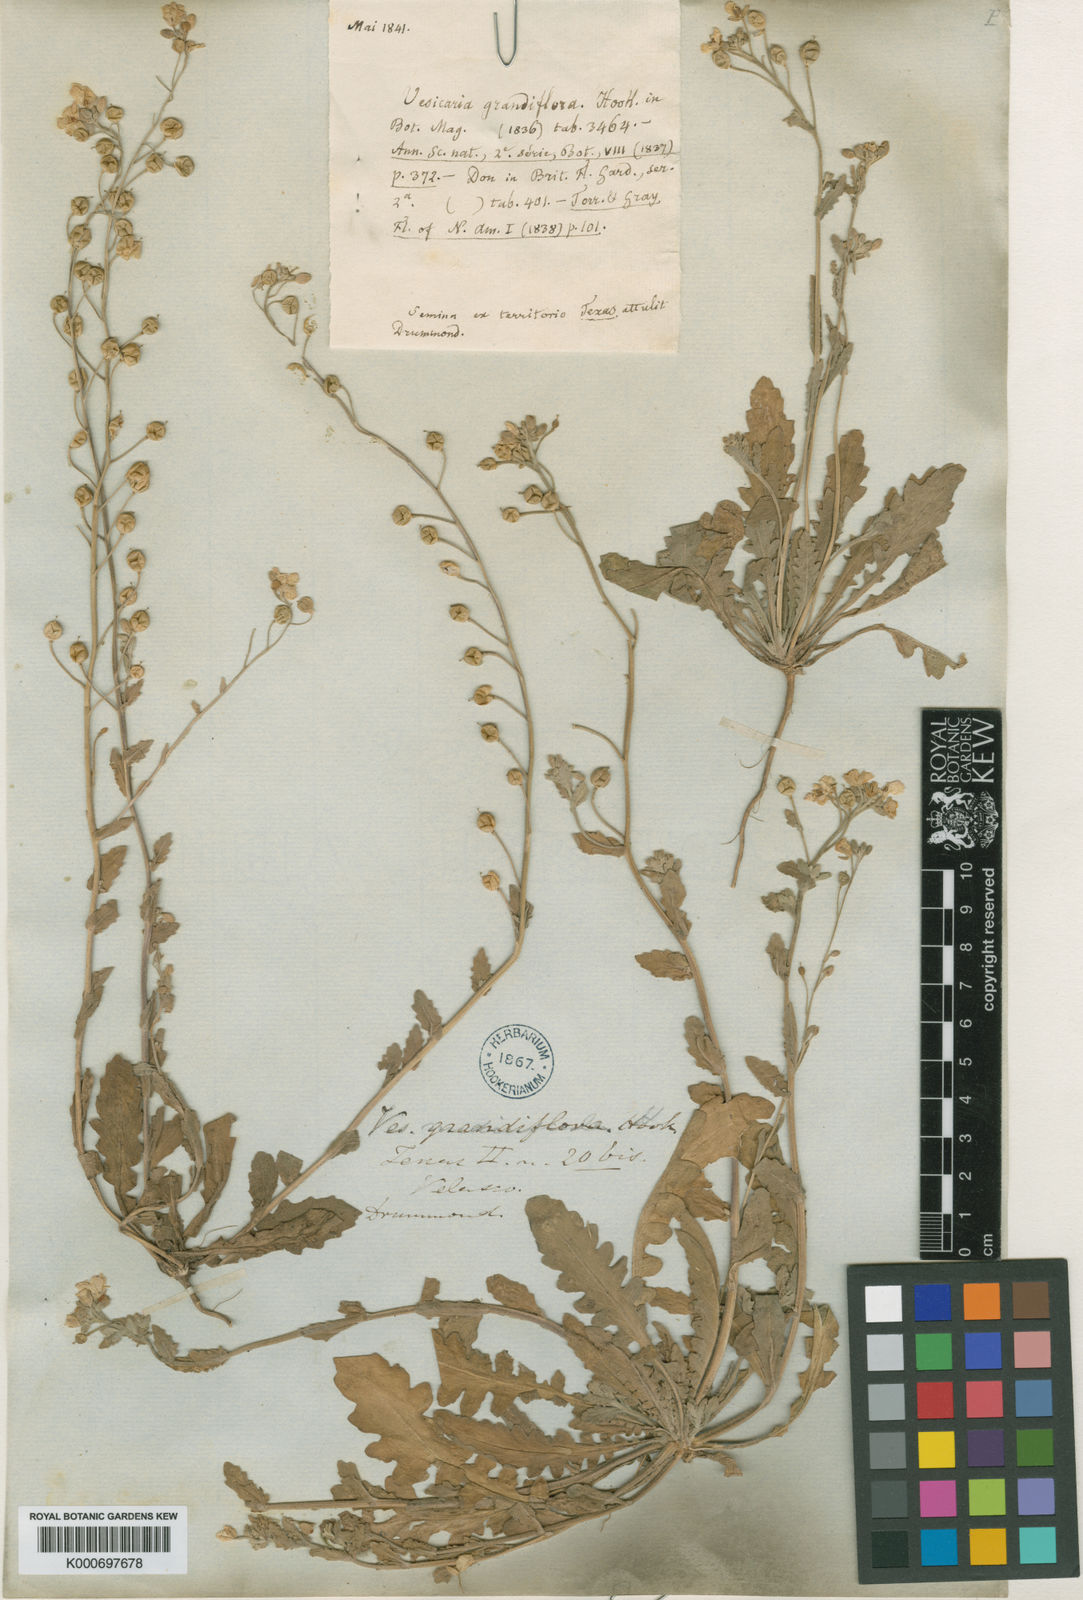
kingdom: Plantae
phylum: Tracheophyta
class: Magnoliopsida
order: Brassicales
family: Brassicaceae
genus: Paysonia
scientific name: Paysonia grandiflora
